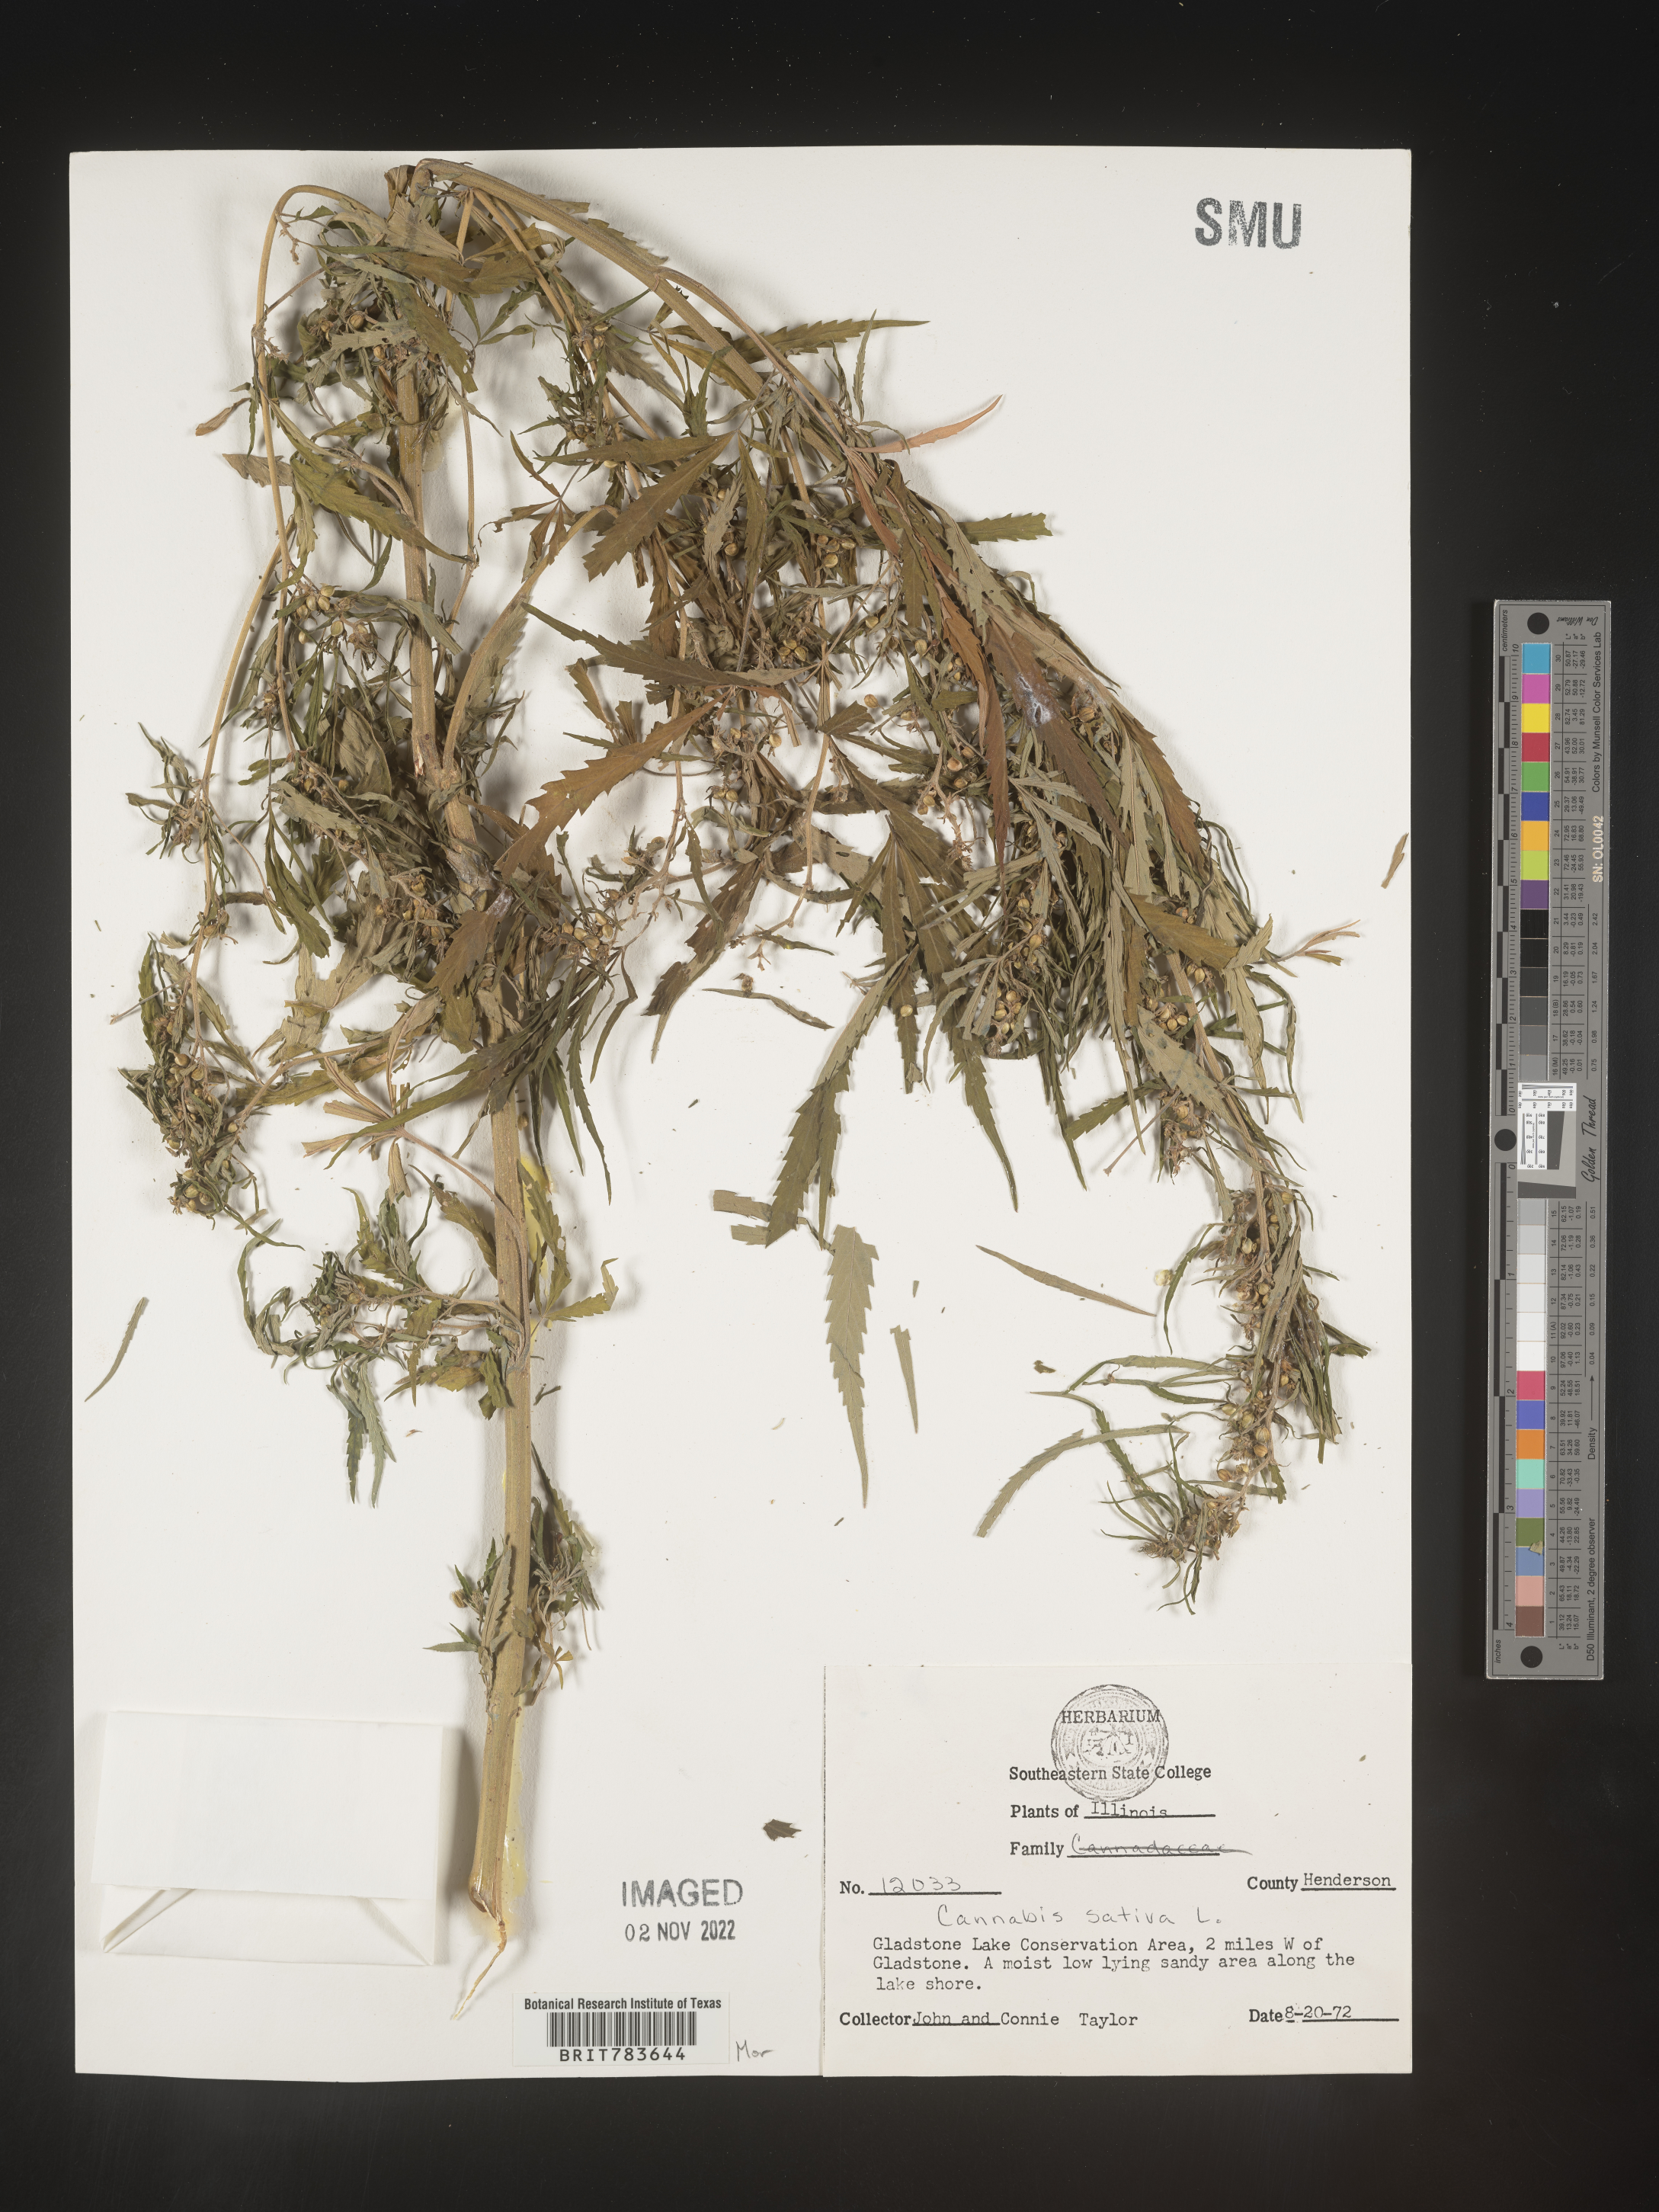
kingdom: Plantae
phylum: Tracheophyta
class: Magnoliopsida
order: Rosales
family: Cannabaceae
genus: Cannabis
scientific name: Cannabis sativa
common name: Hemp
